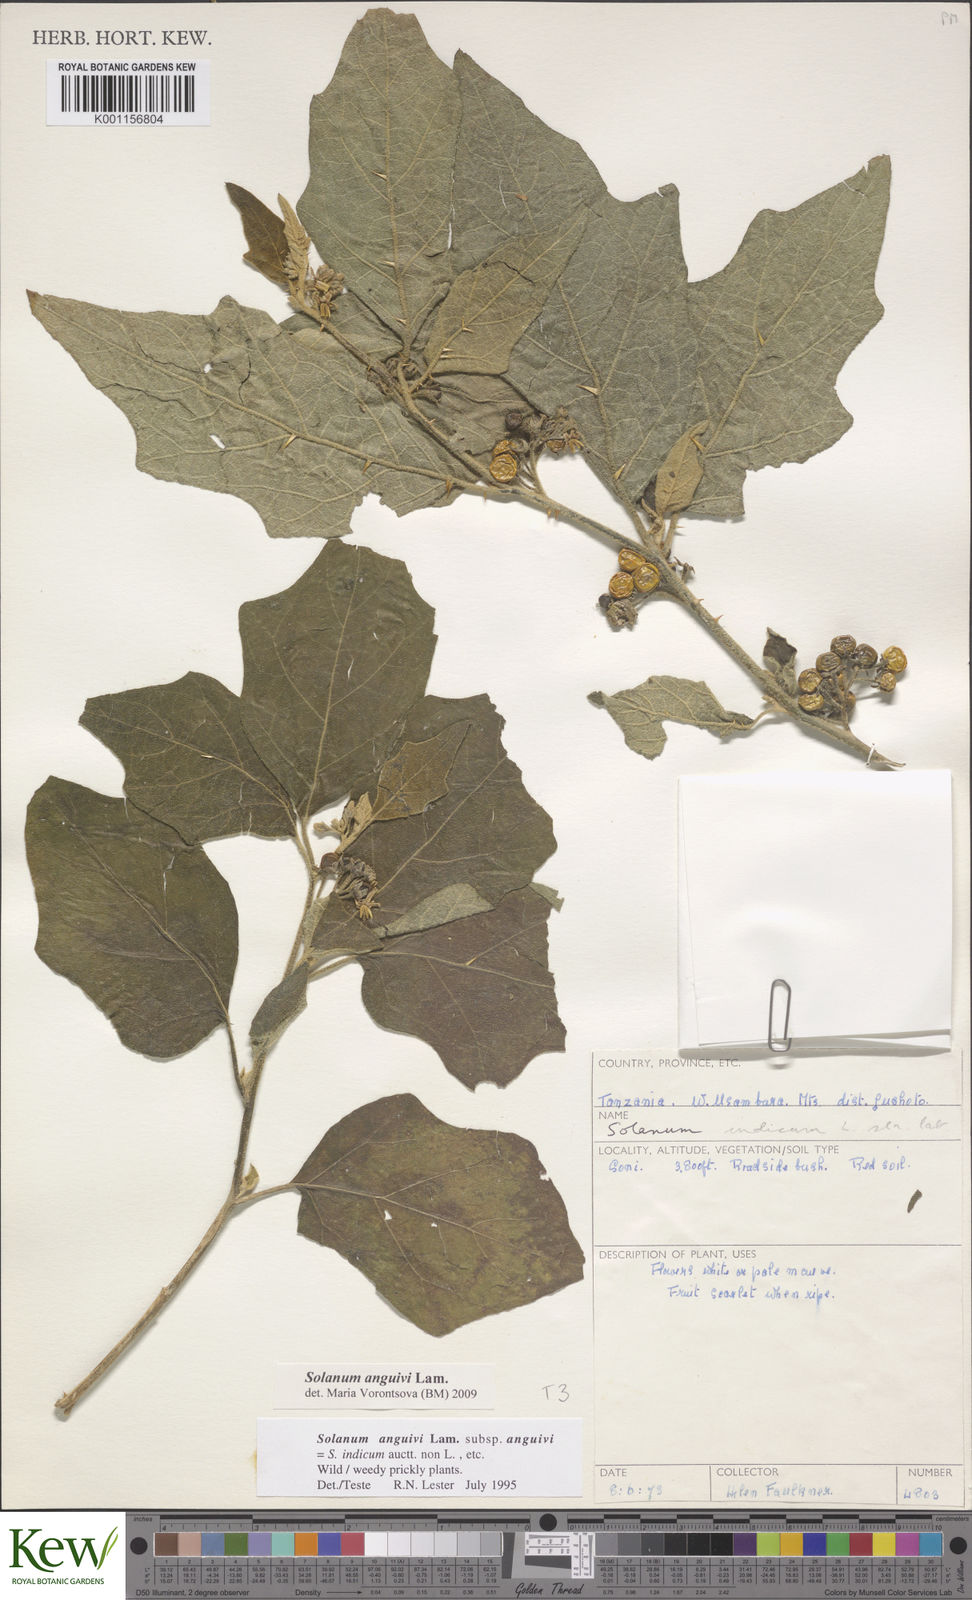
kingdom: Plantae
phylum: Tracheophyta
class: Magnoliopsida
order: Solanales
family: Solanaceae
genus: Solanum
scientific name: Solanum anguivi
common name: Forest bitterberry
